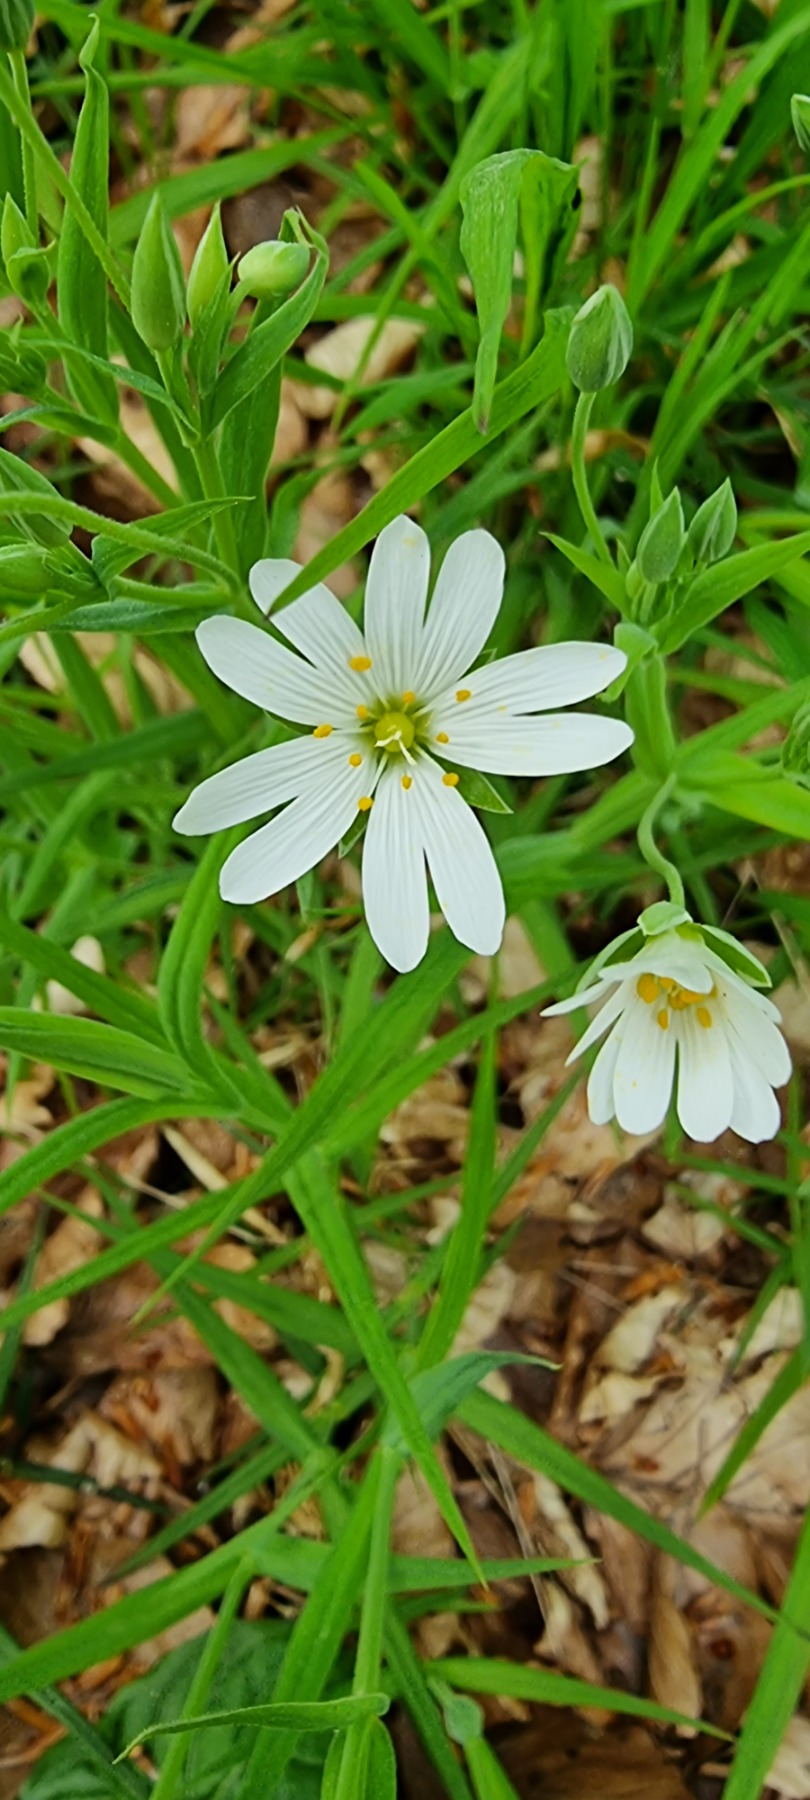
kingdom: Plantae
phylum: Tracheophyta
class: Magnoliopsida
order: Caryophyllales
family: Caryophyllaceae
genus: Rabelera
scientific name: Rabelera holostea
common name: Stor fladstjerne
